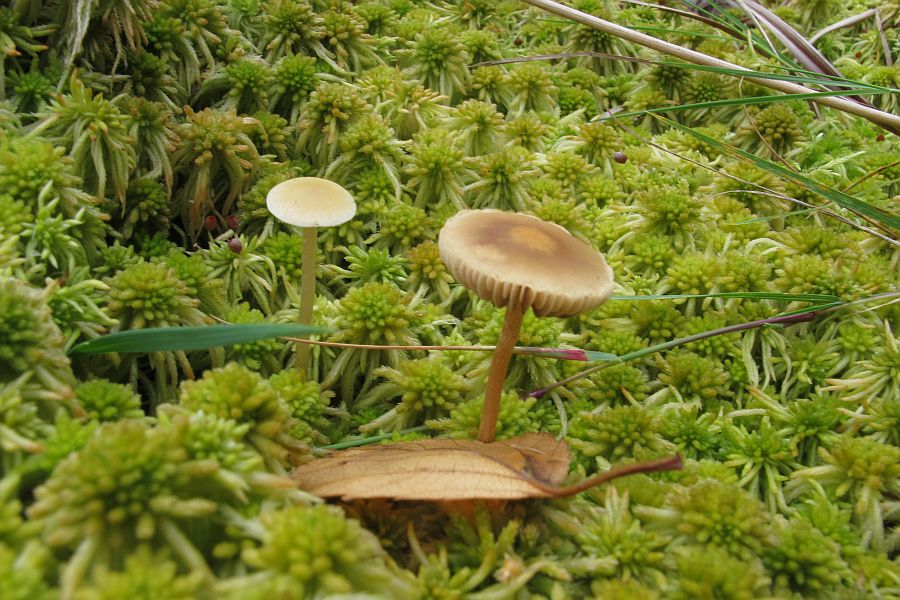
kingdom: Fungi
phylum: Basidiomycota
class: Agaricomycetes
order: Agaricales
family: Strophariaceae
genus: Hypholoma
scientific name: Hypholoma elongatum
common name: slank svovlhat
